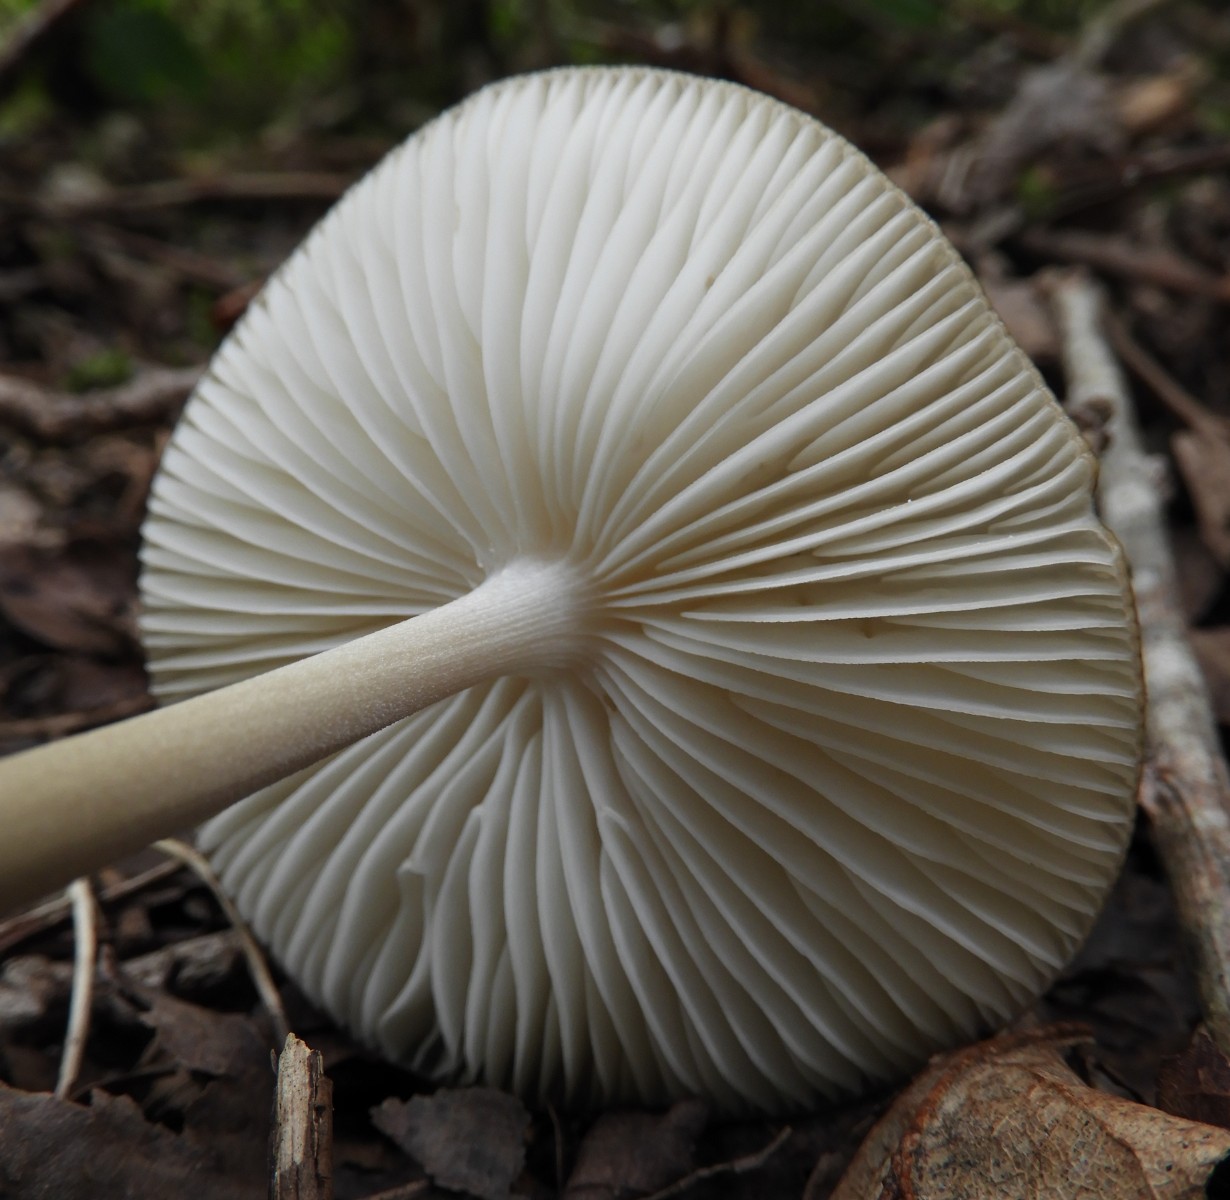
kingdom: Fungi
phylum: Basidiomycota
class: Agaricomycetes
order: Agaricales
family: Physalacriaceae
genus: Hymenopellis
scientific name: Hymenopellis radicata
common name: almindelig pælerodshat
